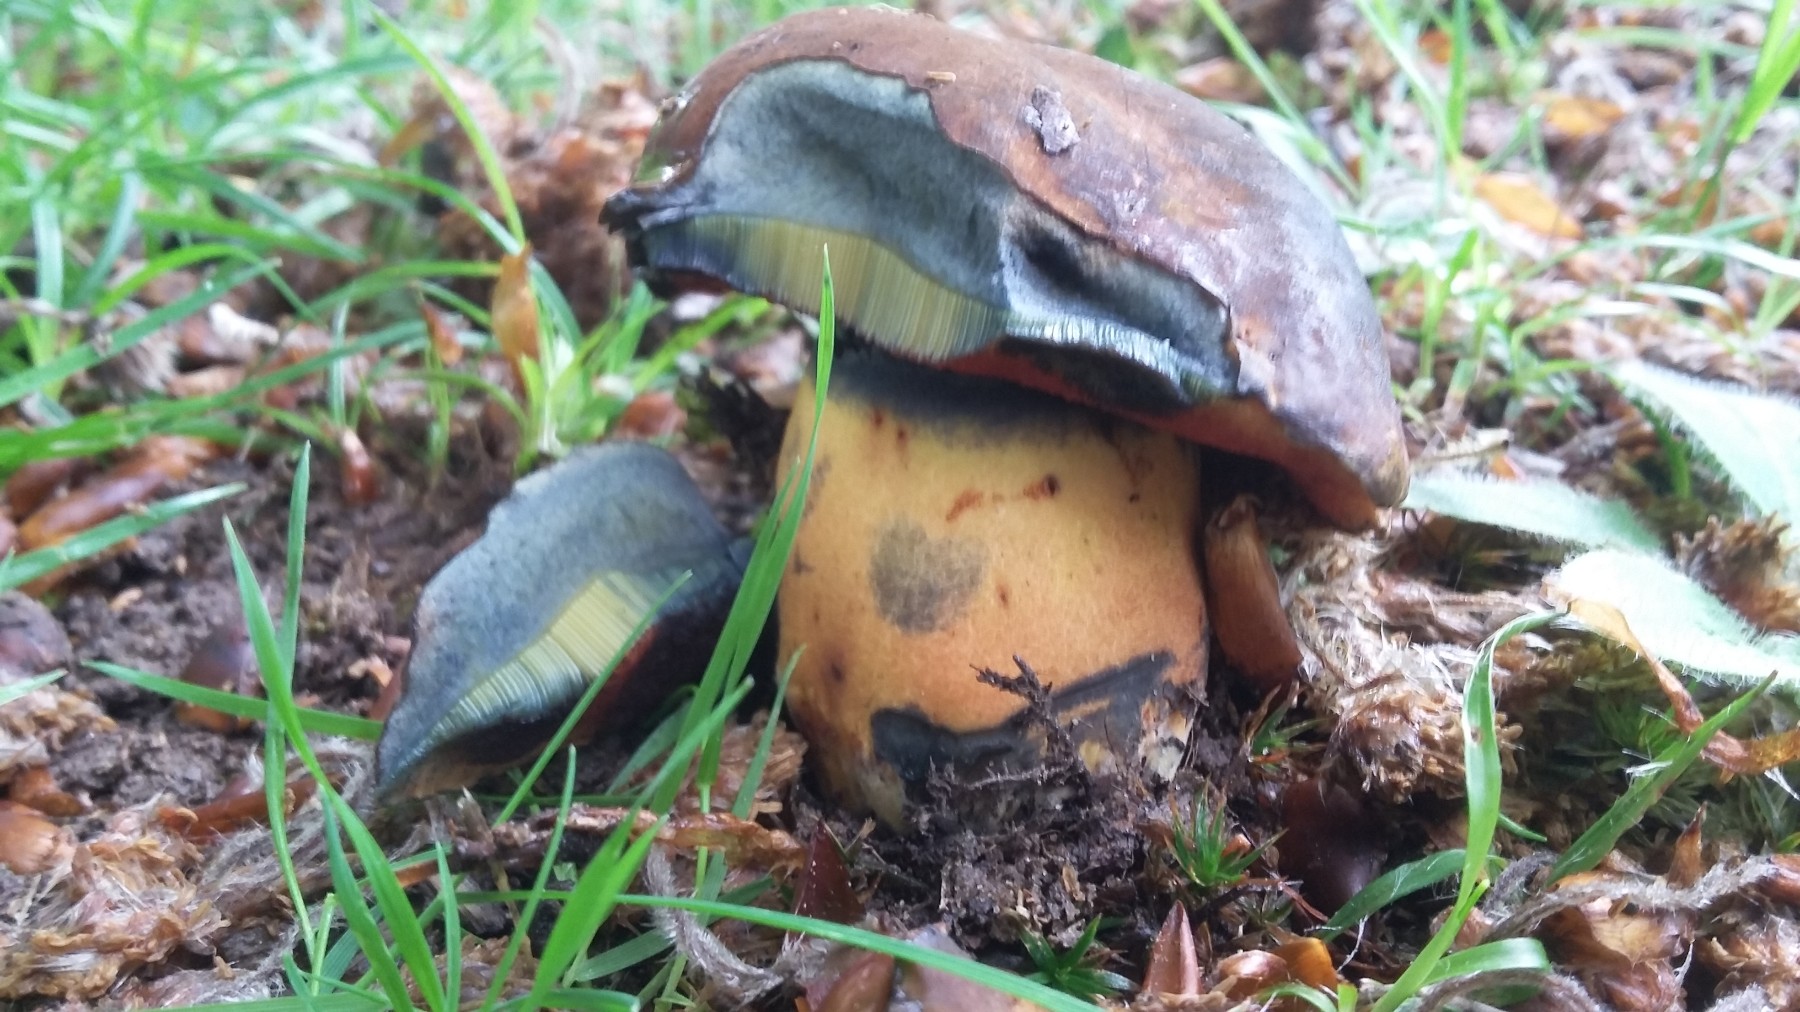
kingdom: Fungi
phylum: Basidiomycota
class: Agaricomycetes
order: Boletales
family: Boletaceae
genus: Sutorius
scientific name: Sutorius
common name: indigorørhat
